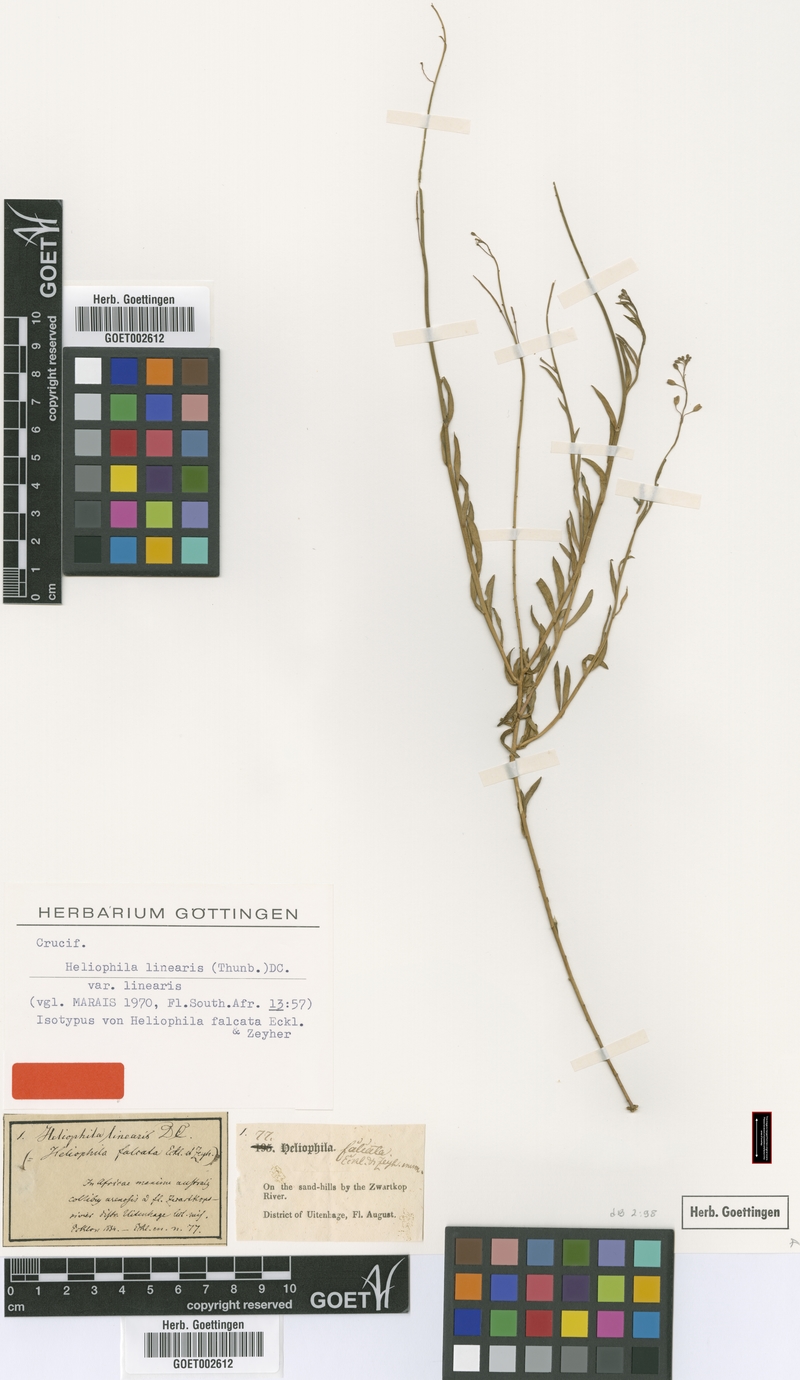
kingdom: Plantae
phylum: Tracheophyta
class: Magnoliopsida
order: Brassicales
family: Brassicaceae
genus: Heliophila
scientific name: Heliophila linearis
